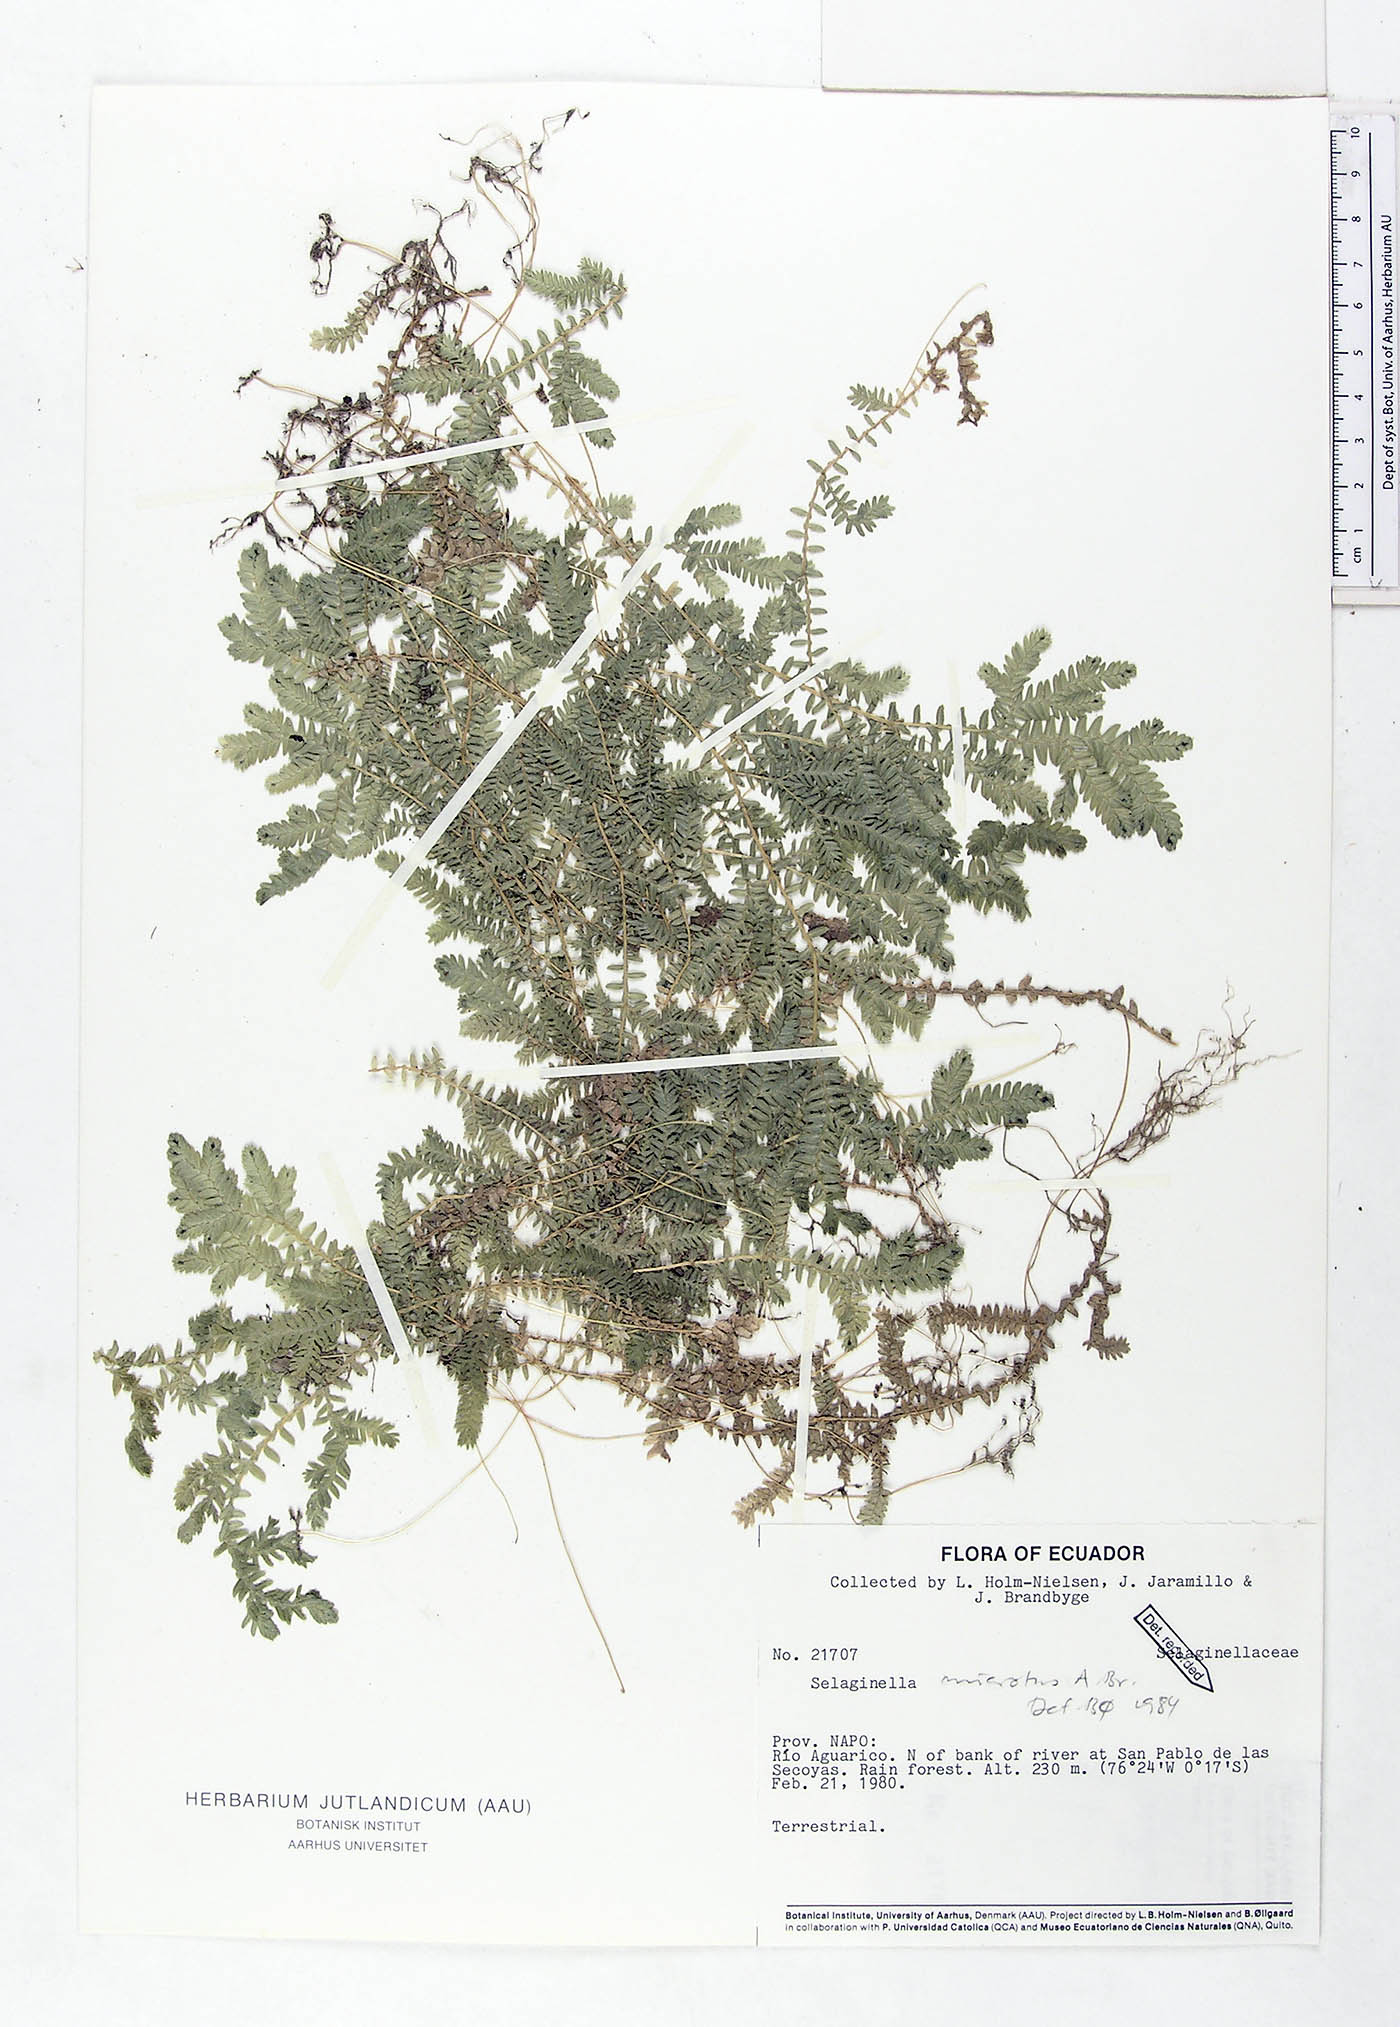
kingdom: Plantae
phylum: Tracheophyta
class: Lycopodiopsida
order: Selaginellales
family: Selaginellaceae
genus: Selaginella
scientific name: Selaginella microtus
